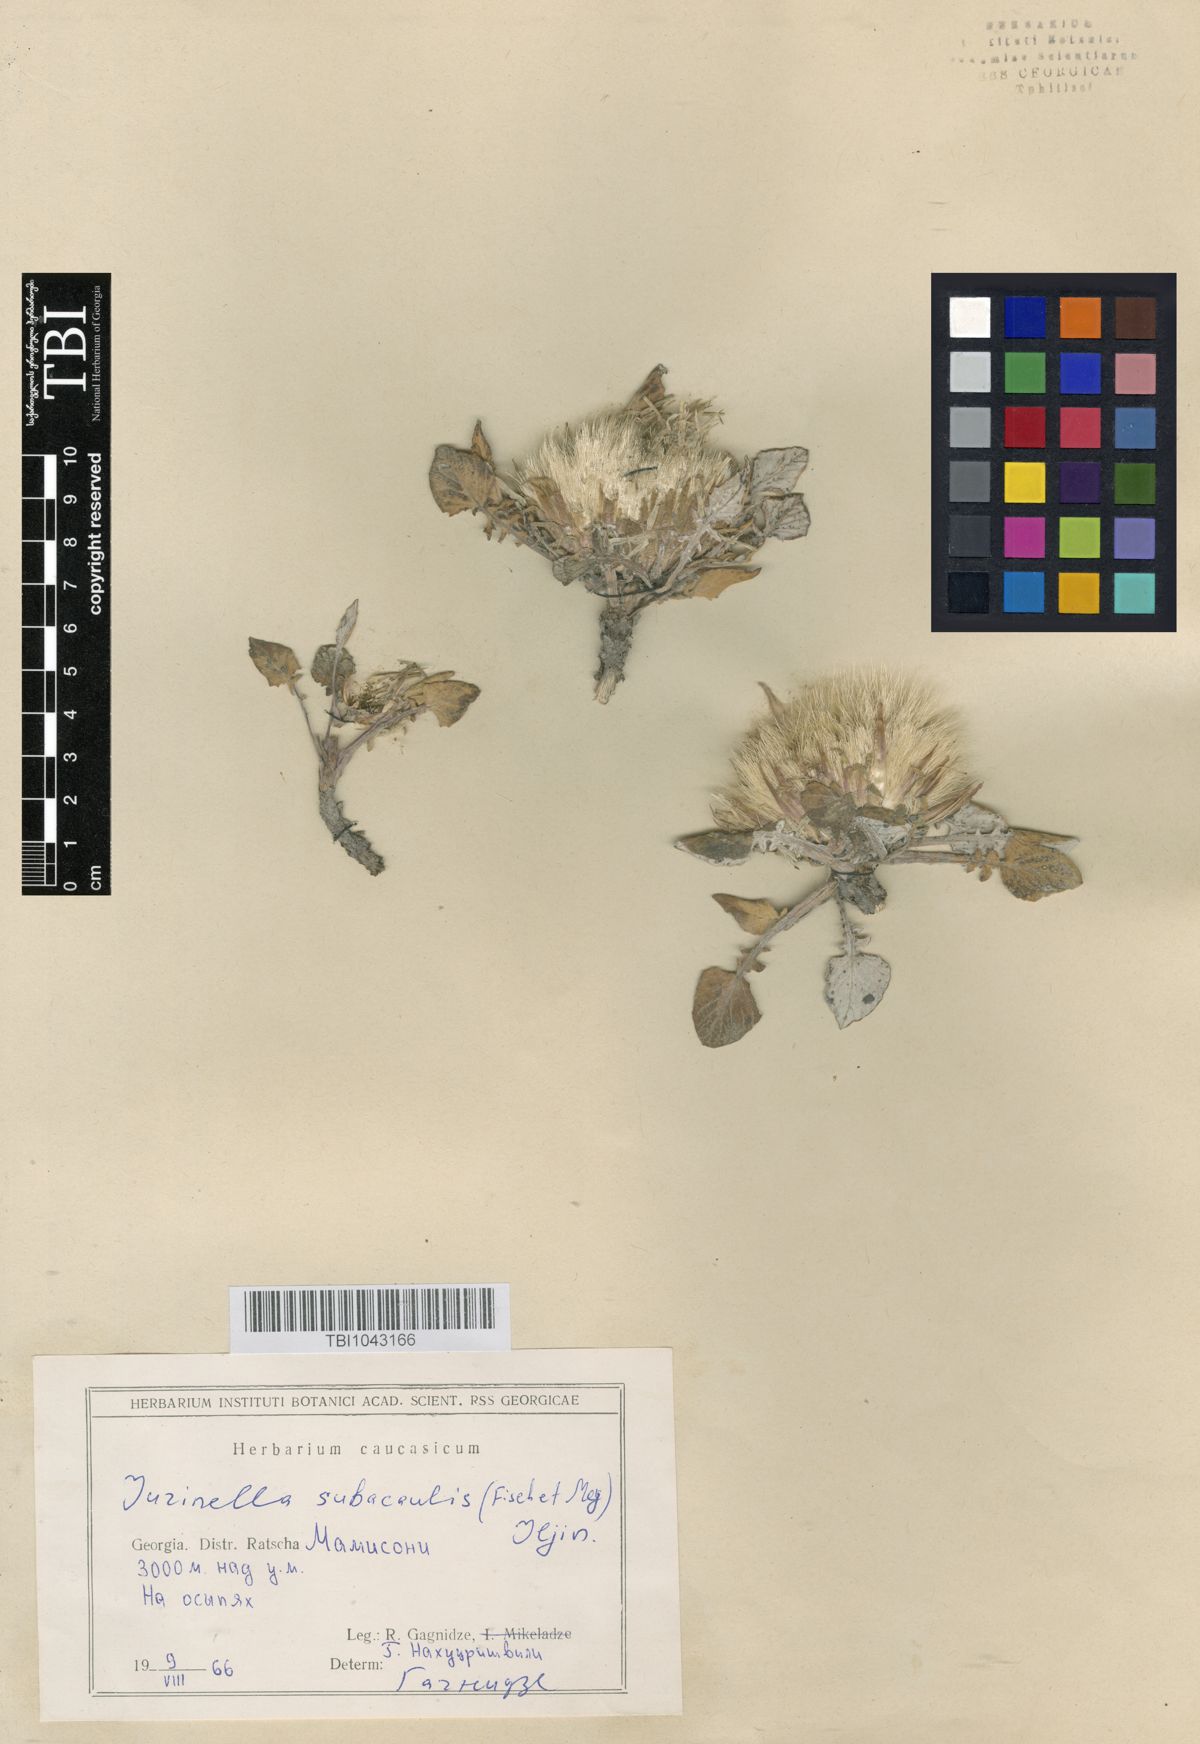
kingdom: Plantae
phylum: Tracheophyta
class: Magnoliopsida
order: Asterales
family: Asteraceae
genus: Jurinea
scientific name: Jurinea moschus
